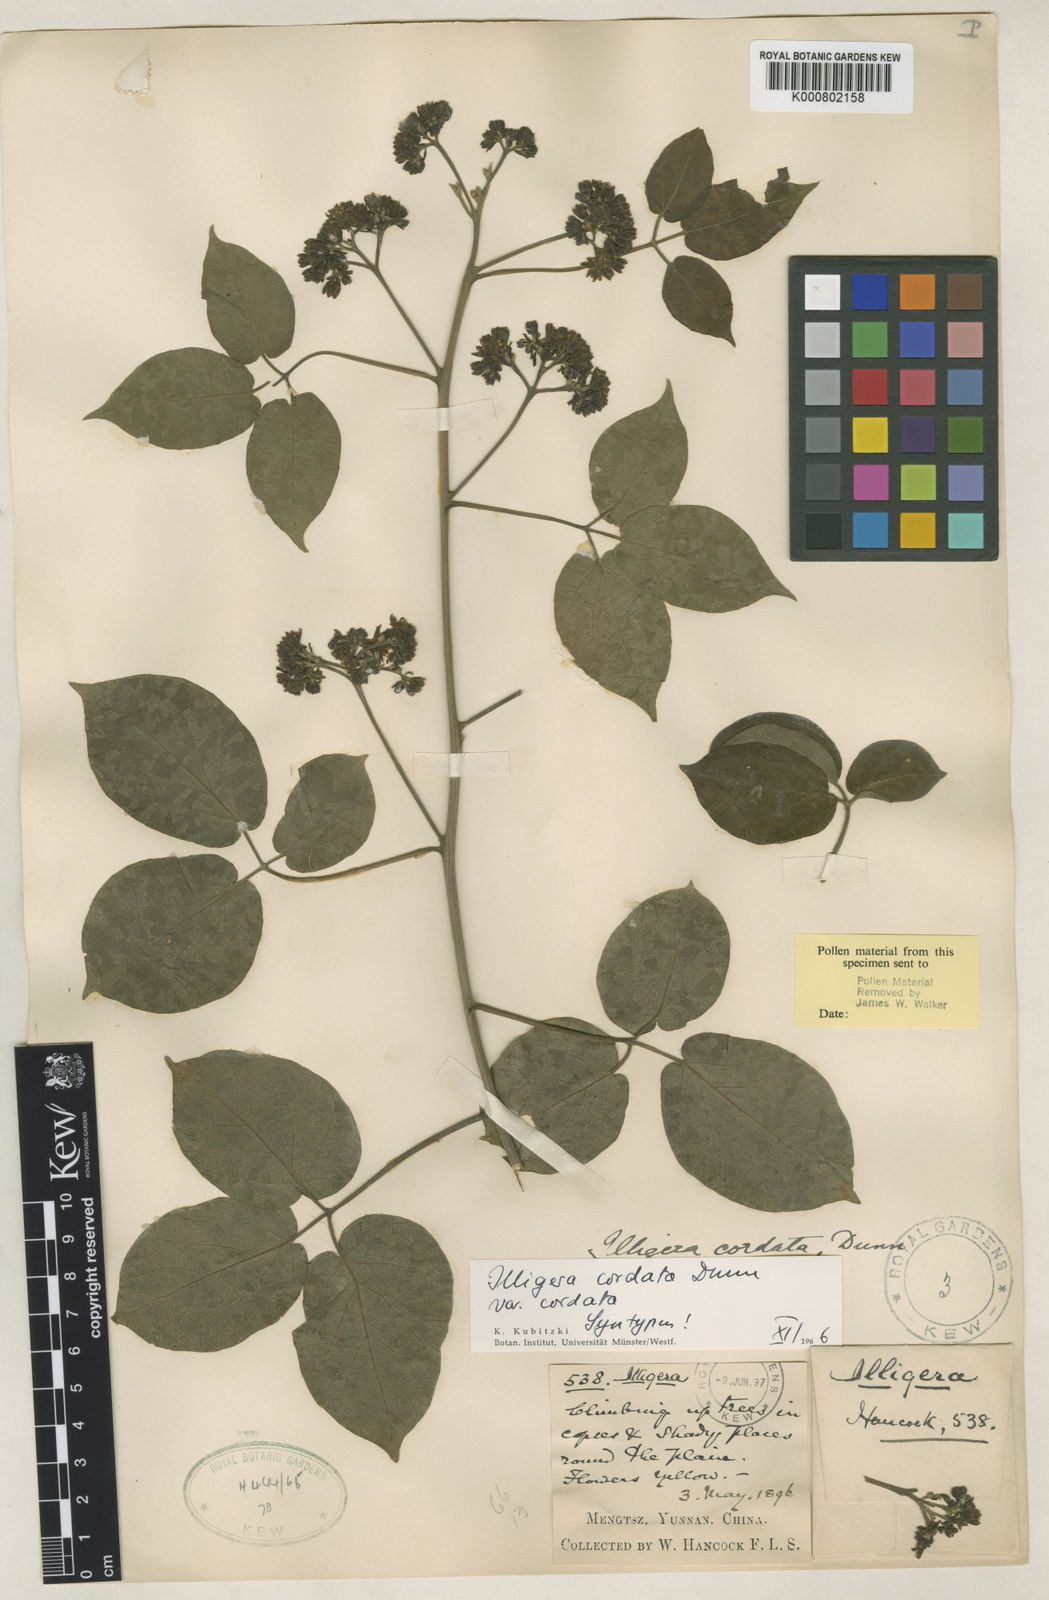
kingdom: Plantae
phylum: Tracheophyta
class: Magnoliopsida
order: Laurales
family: Hernandiaceae
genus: Illigera
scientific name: Illigera cordata
